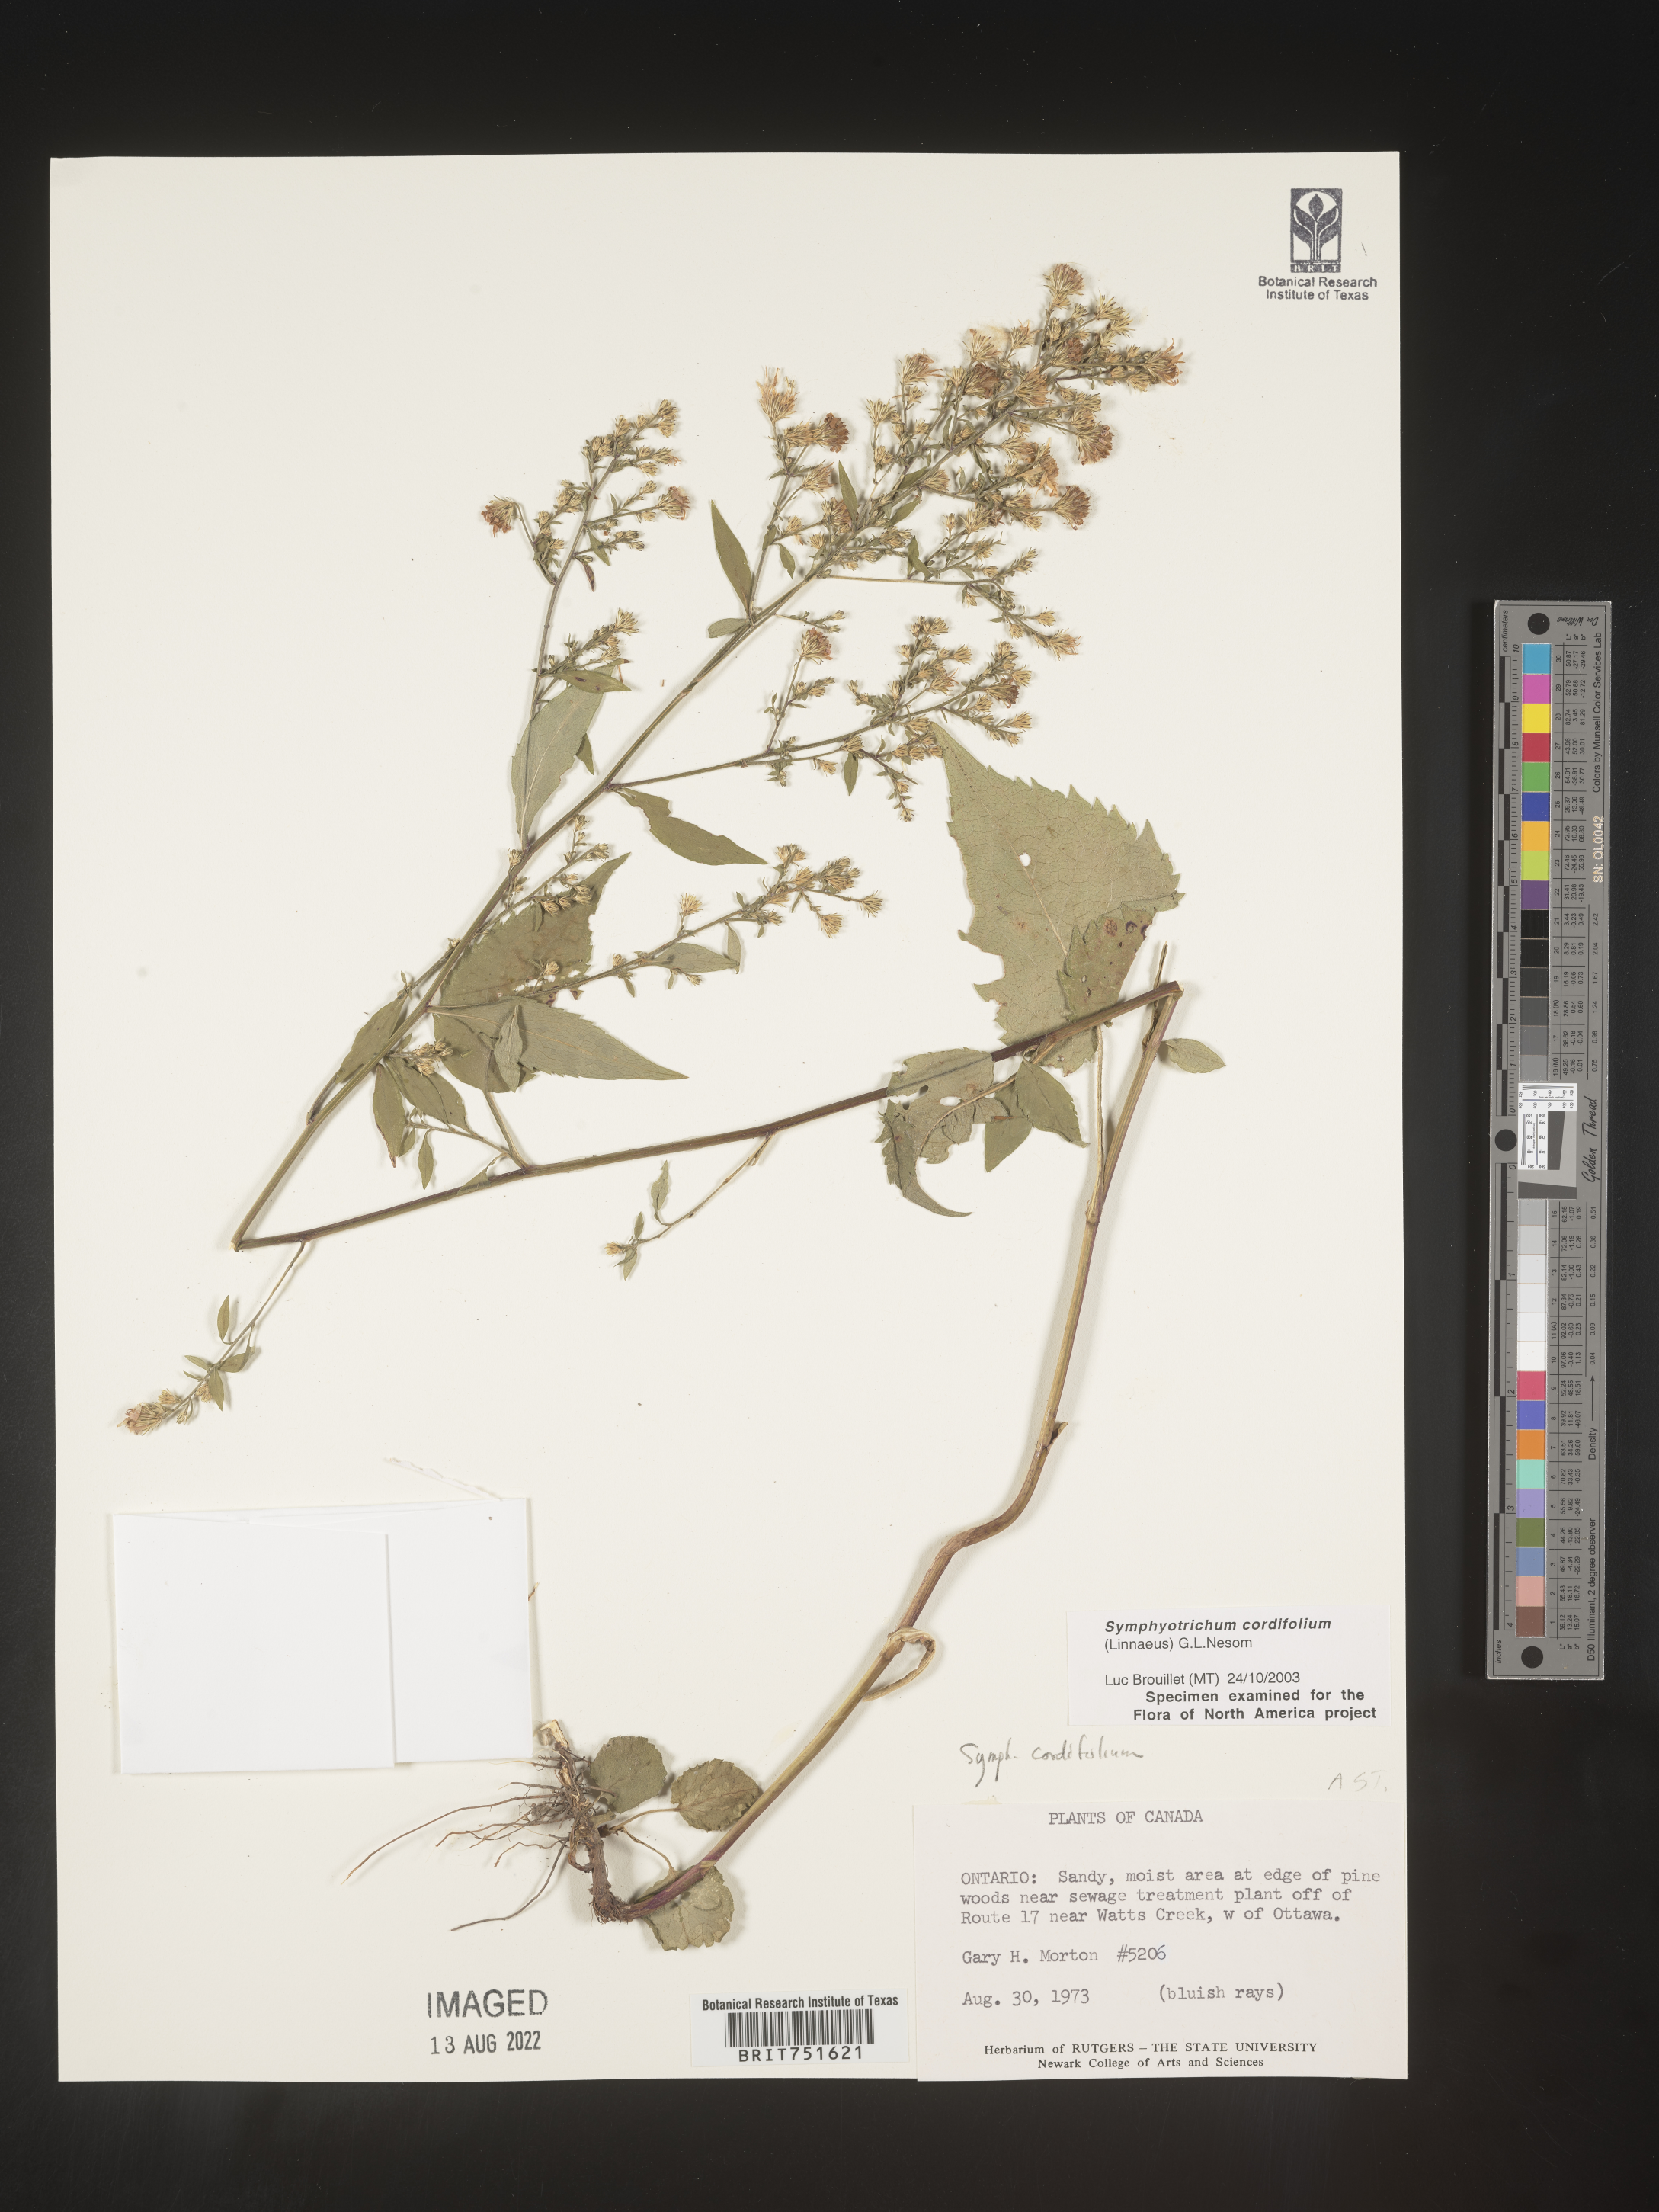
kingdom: Plantae
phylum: Tracheophyta
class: Magnoliopsida
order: Asterales
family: Asteraceae
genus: Symphyotrichum
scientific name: Symphyotrichum cordifolium
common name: Beeweed
